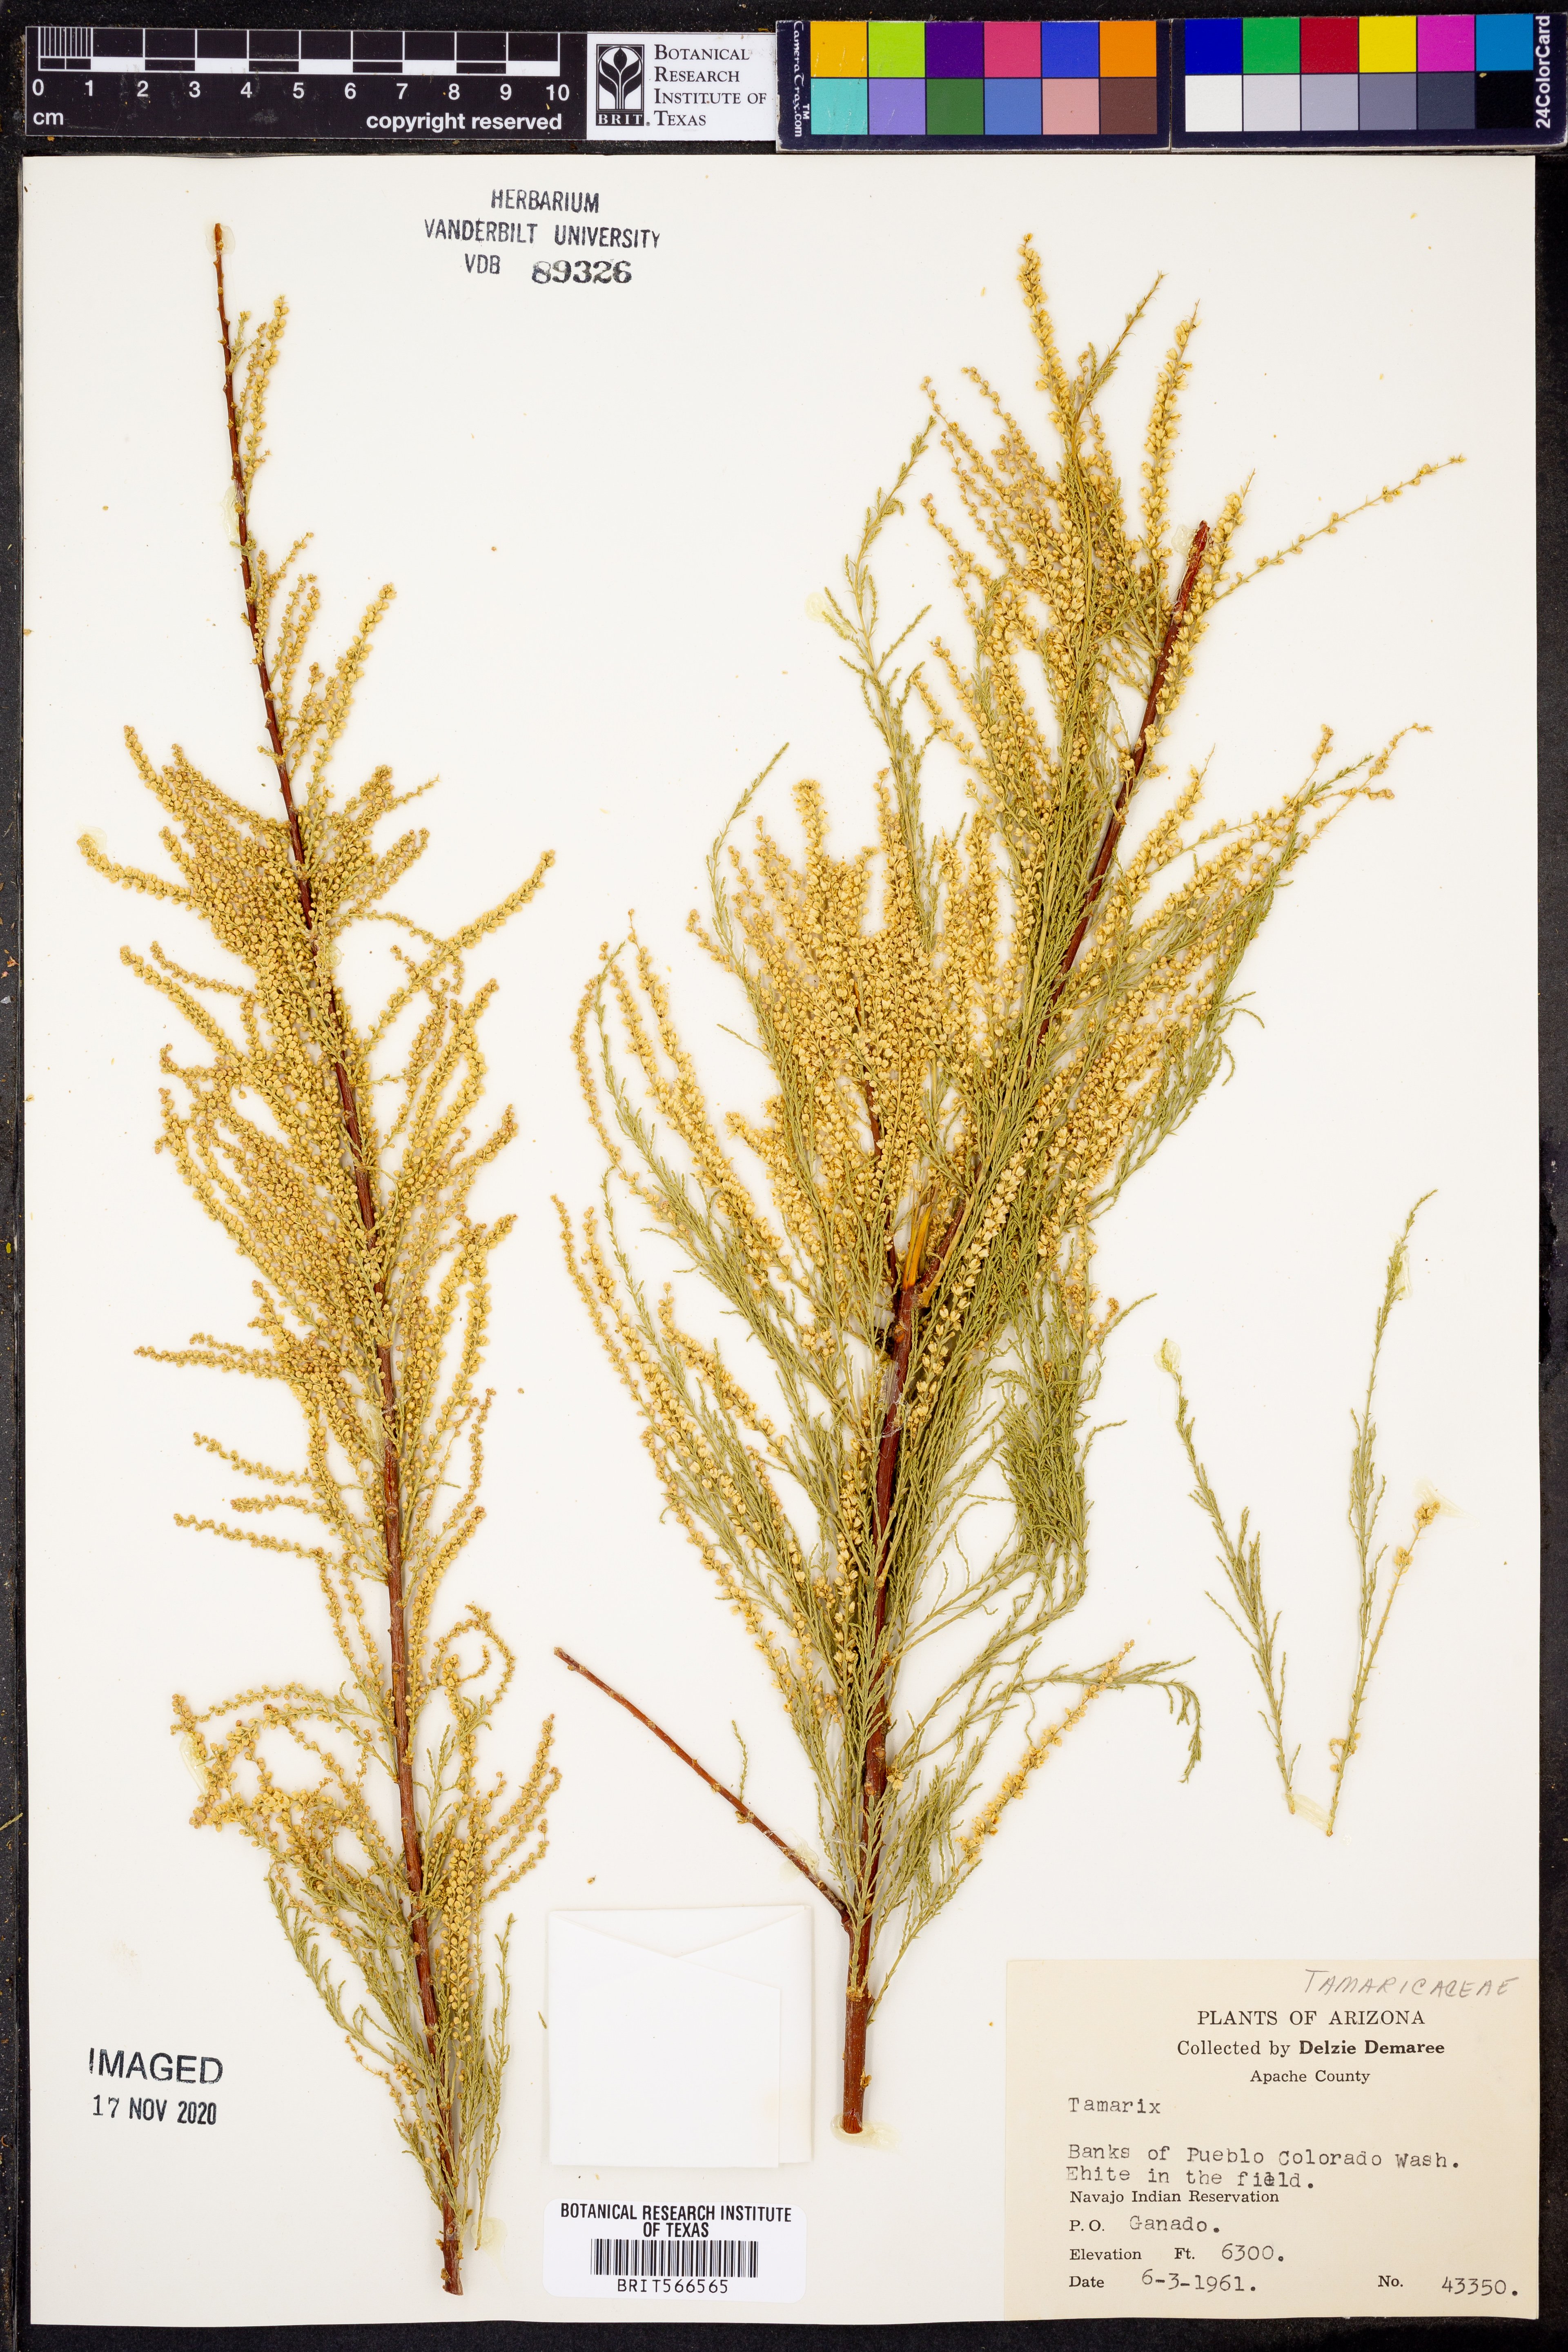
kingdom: Plantae
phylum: Tracheophyta
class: Magnoliopsida
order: Caryophyllales
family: Tamaricaceae
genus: Tamarix
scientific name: Tamarix
